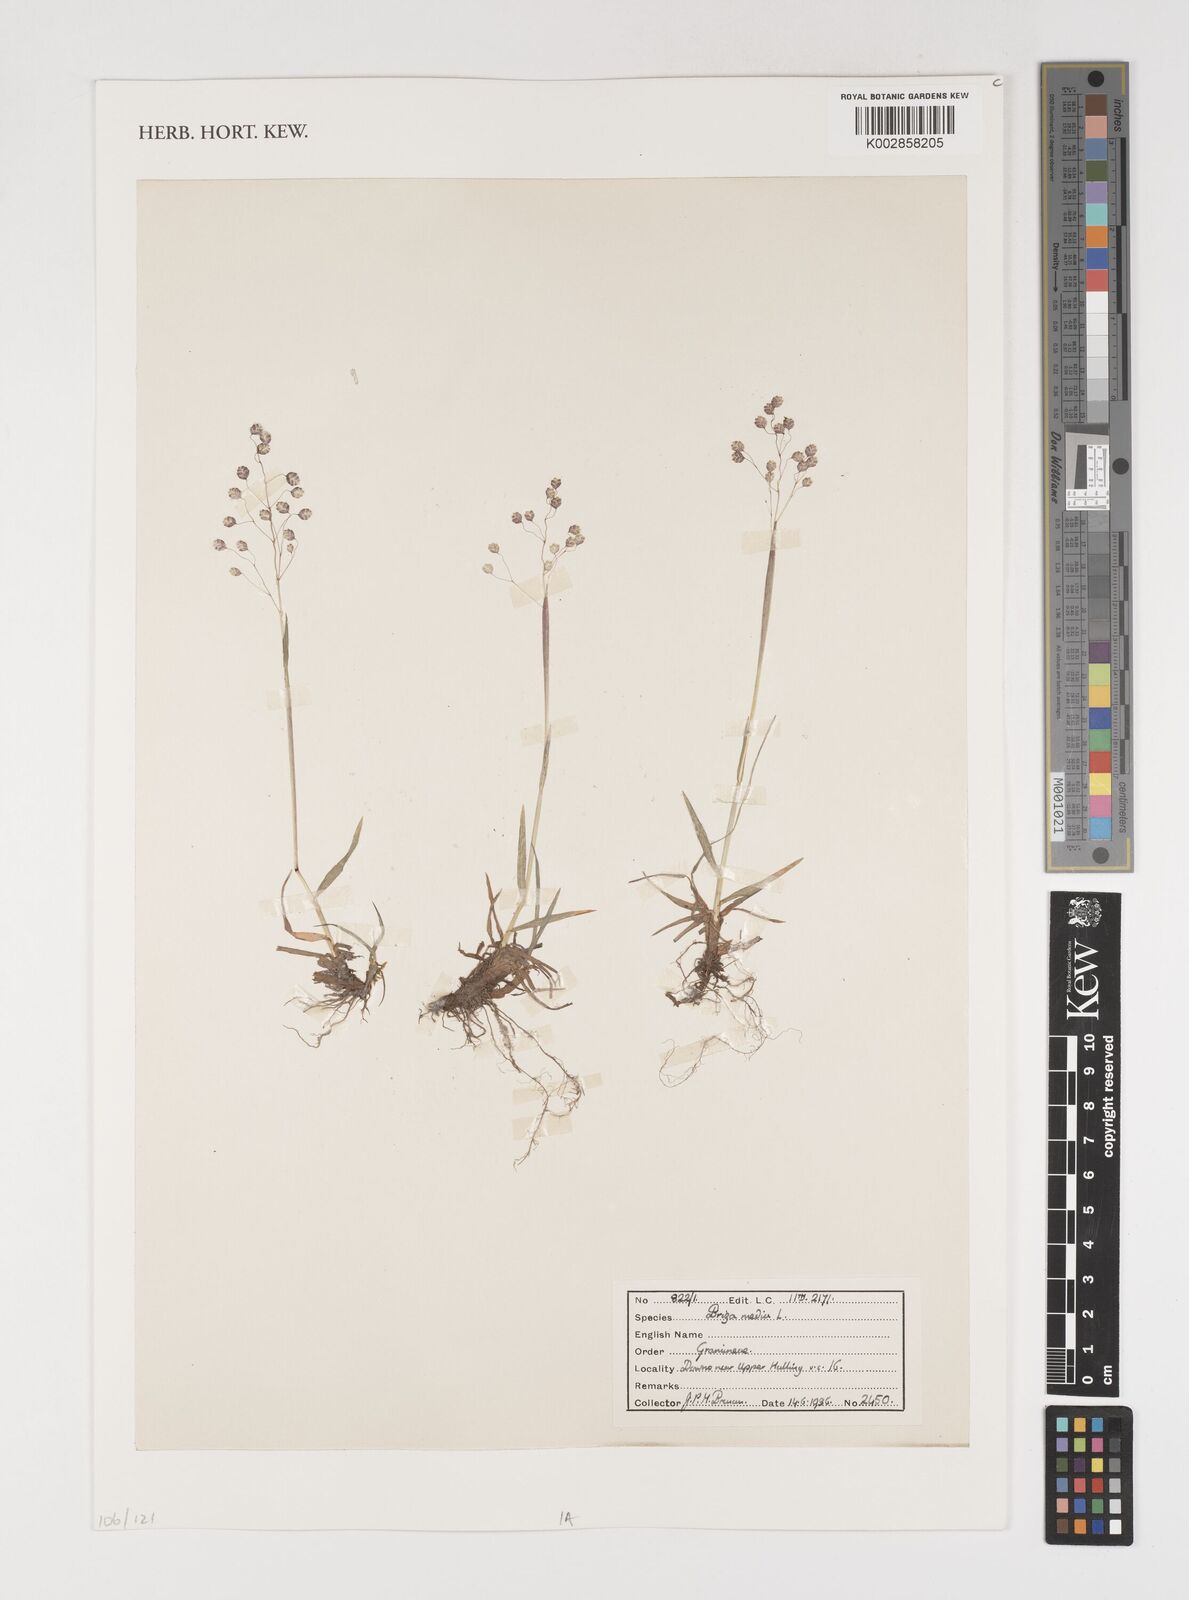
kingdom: Plantae
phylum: Tracheophyta
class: Liliopsida
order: Poales
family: Poaceae
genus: Briza
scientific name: Briza media
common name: Quaking grass
